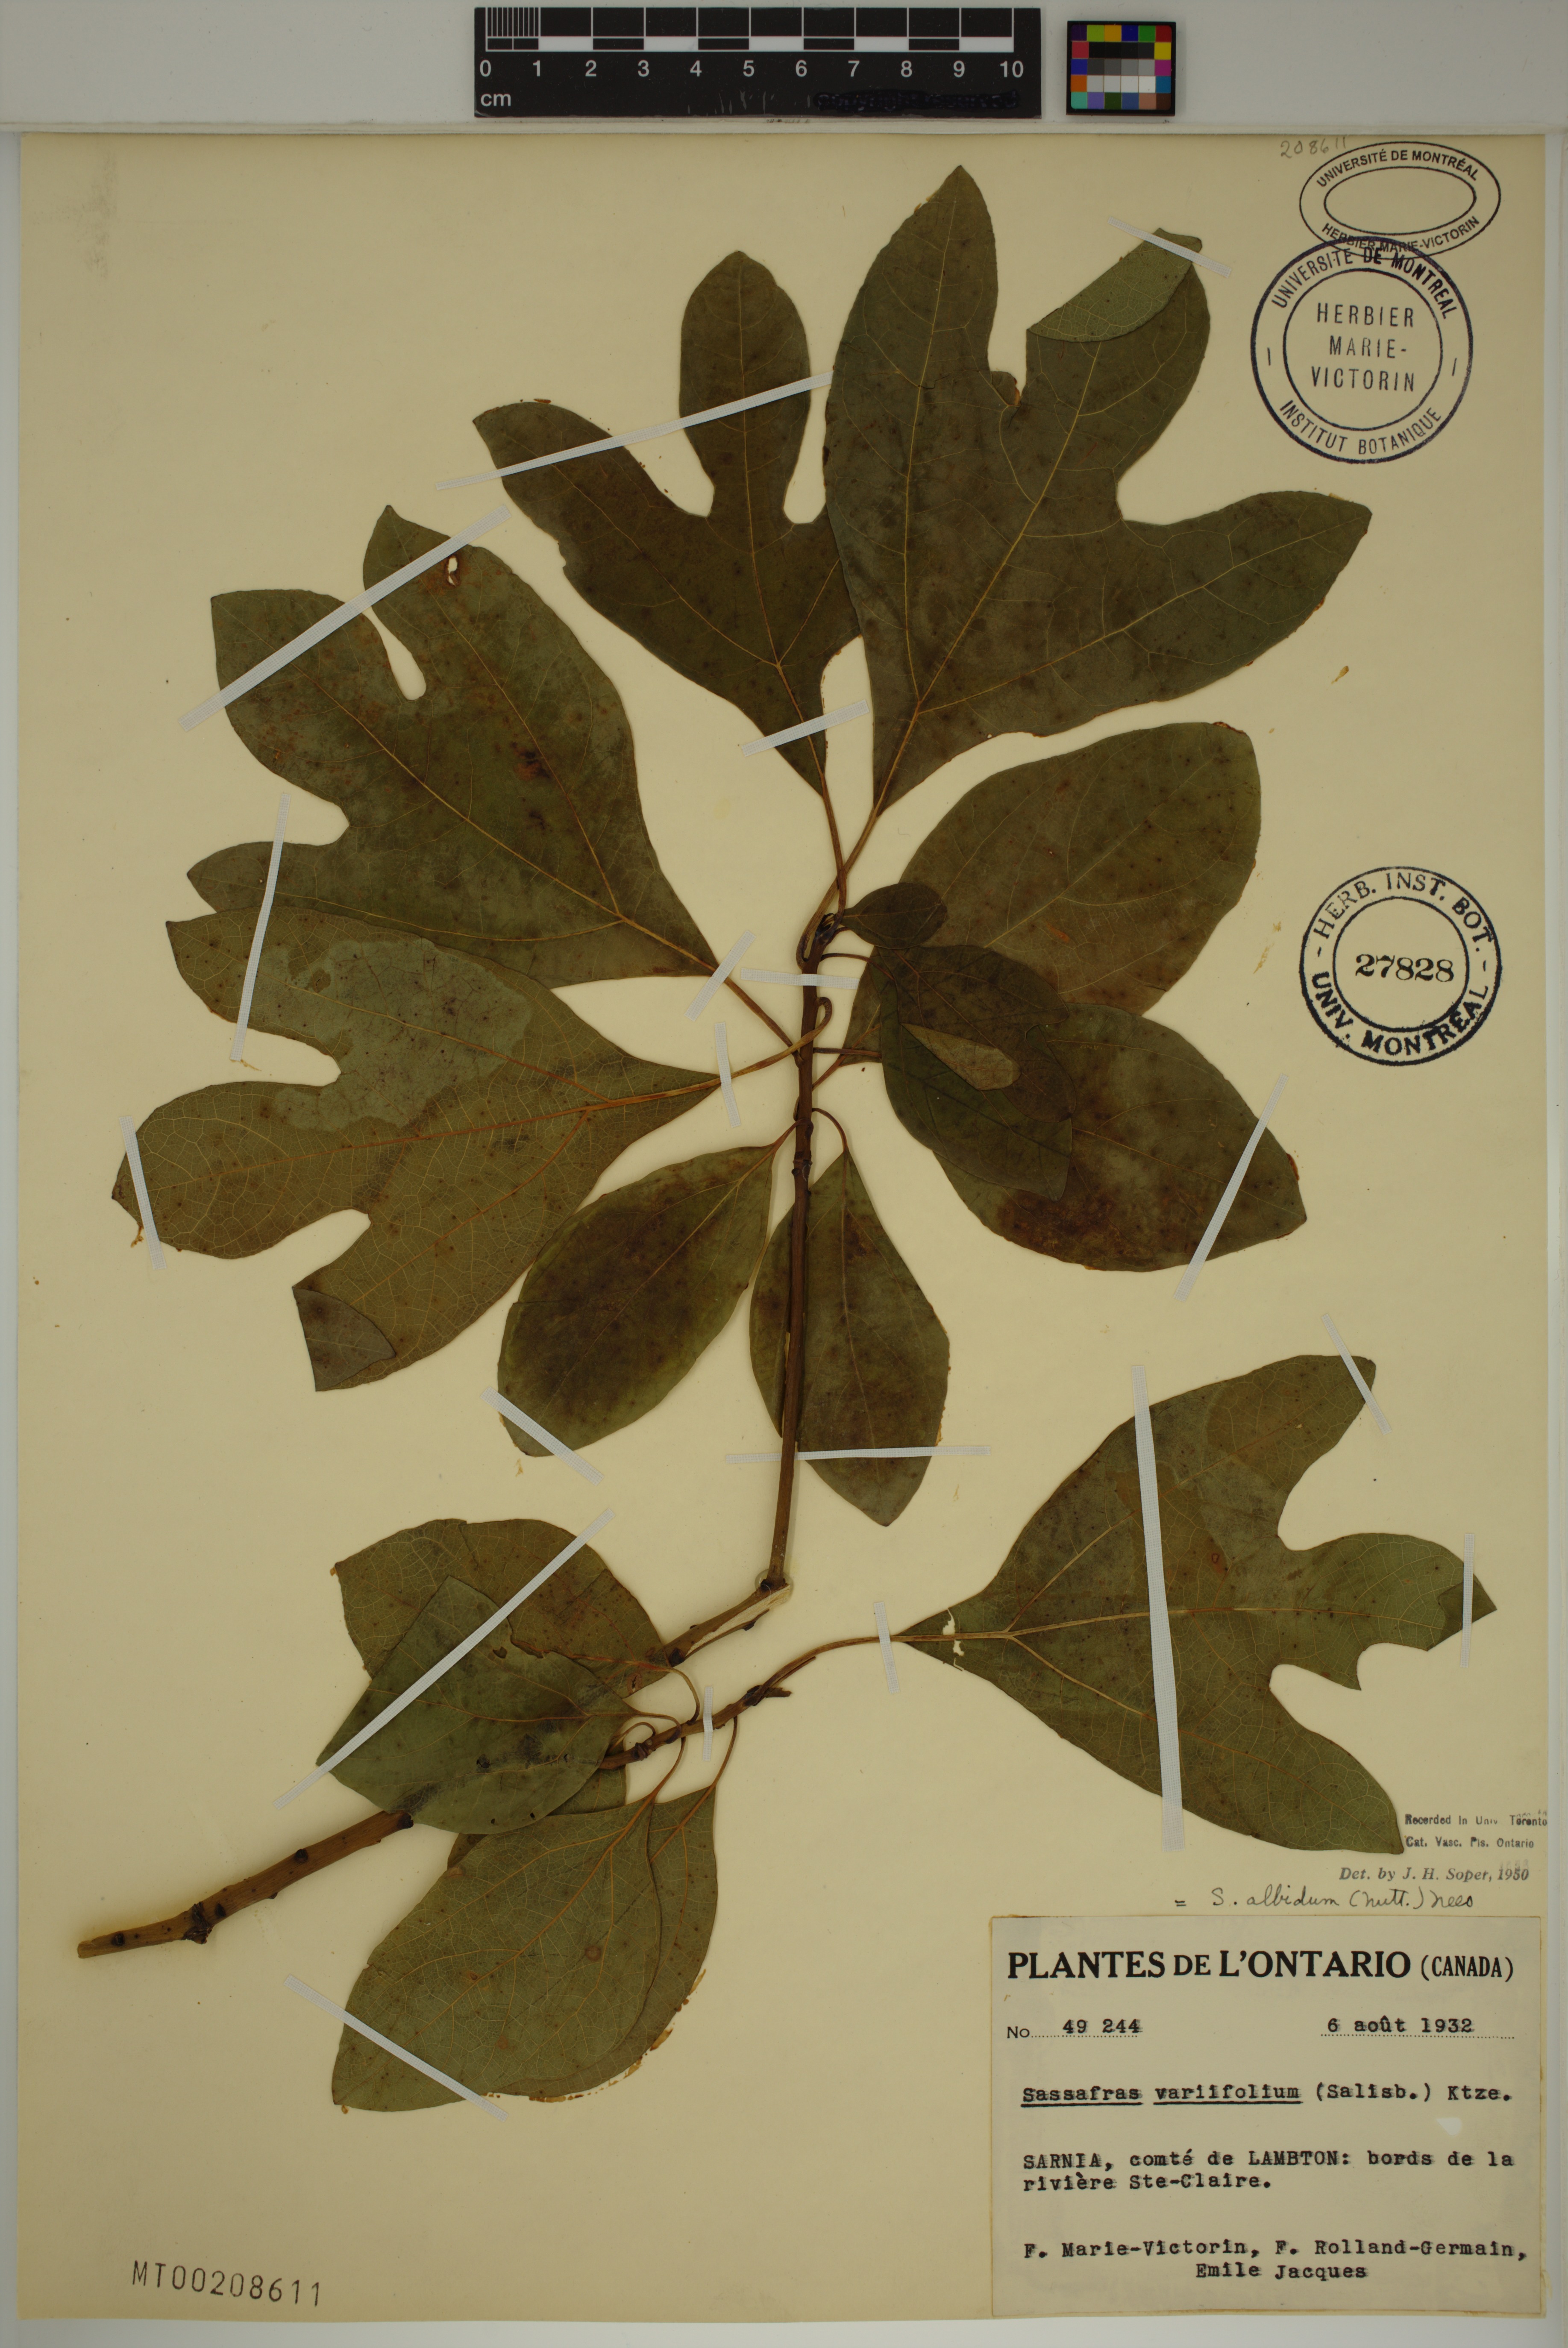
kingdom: Plantae
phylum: Tracheophyta
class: Magnoliopsida
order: Laurales
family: Lauraceae
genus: Sassafras
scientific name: Sassafras albidum
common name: Sassafras
